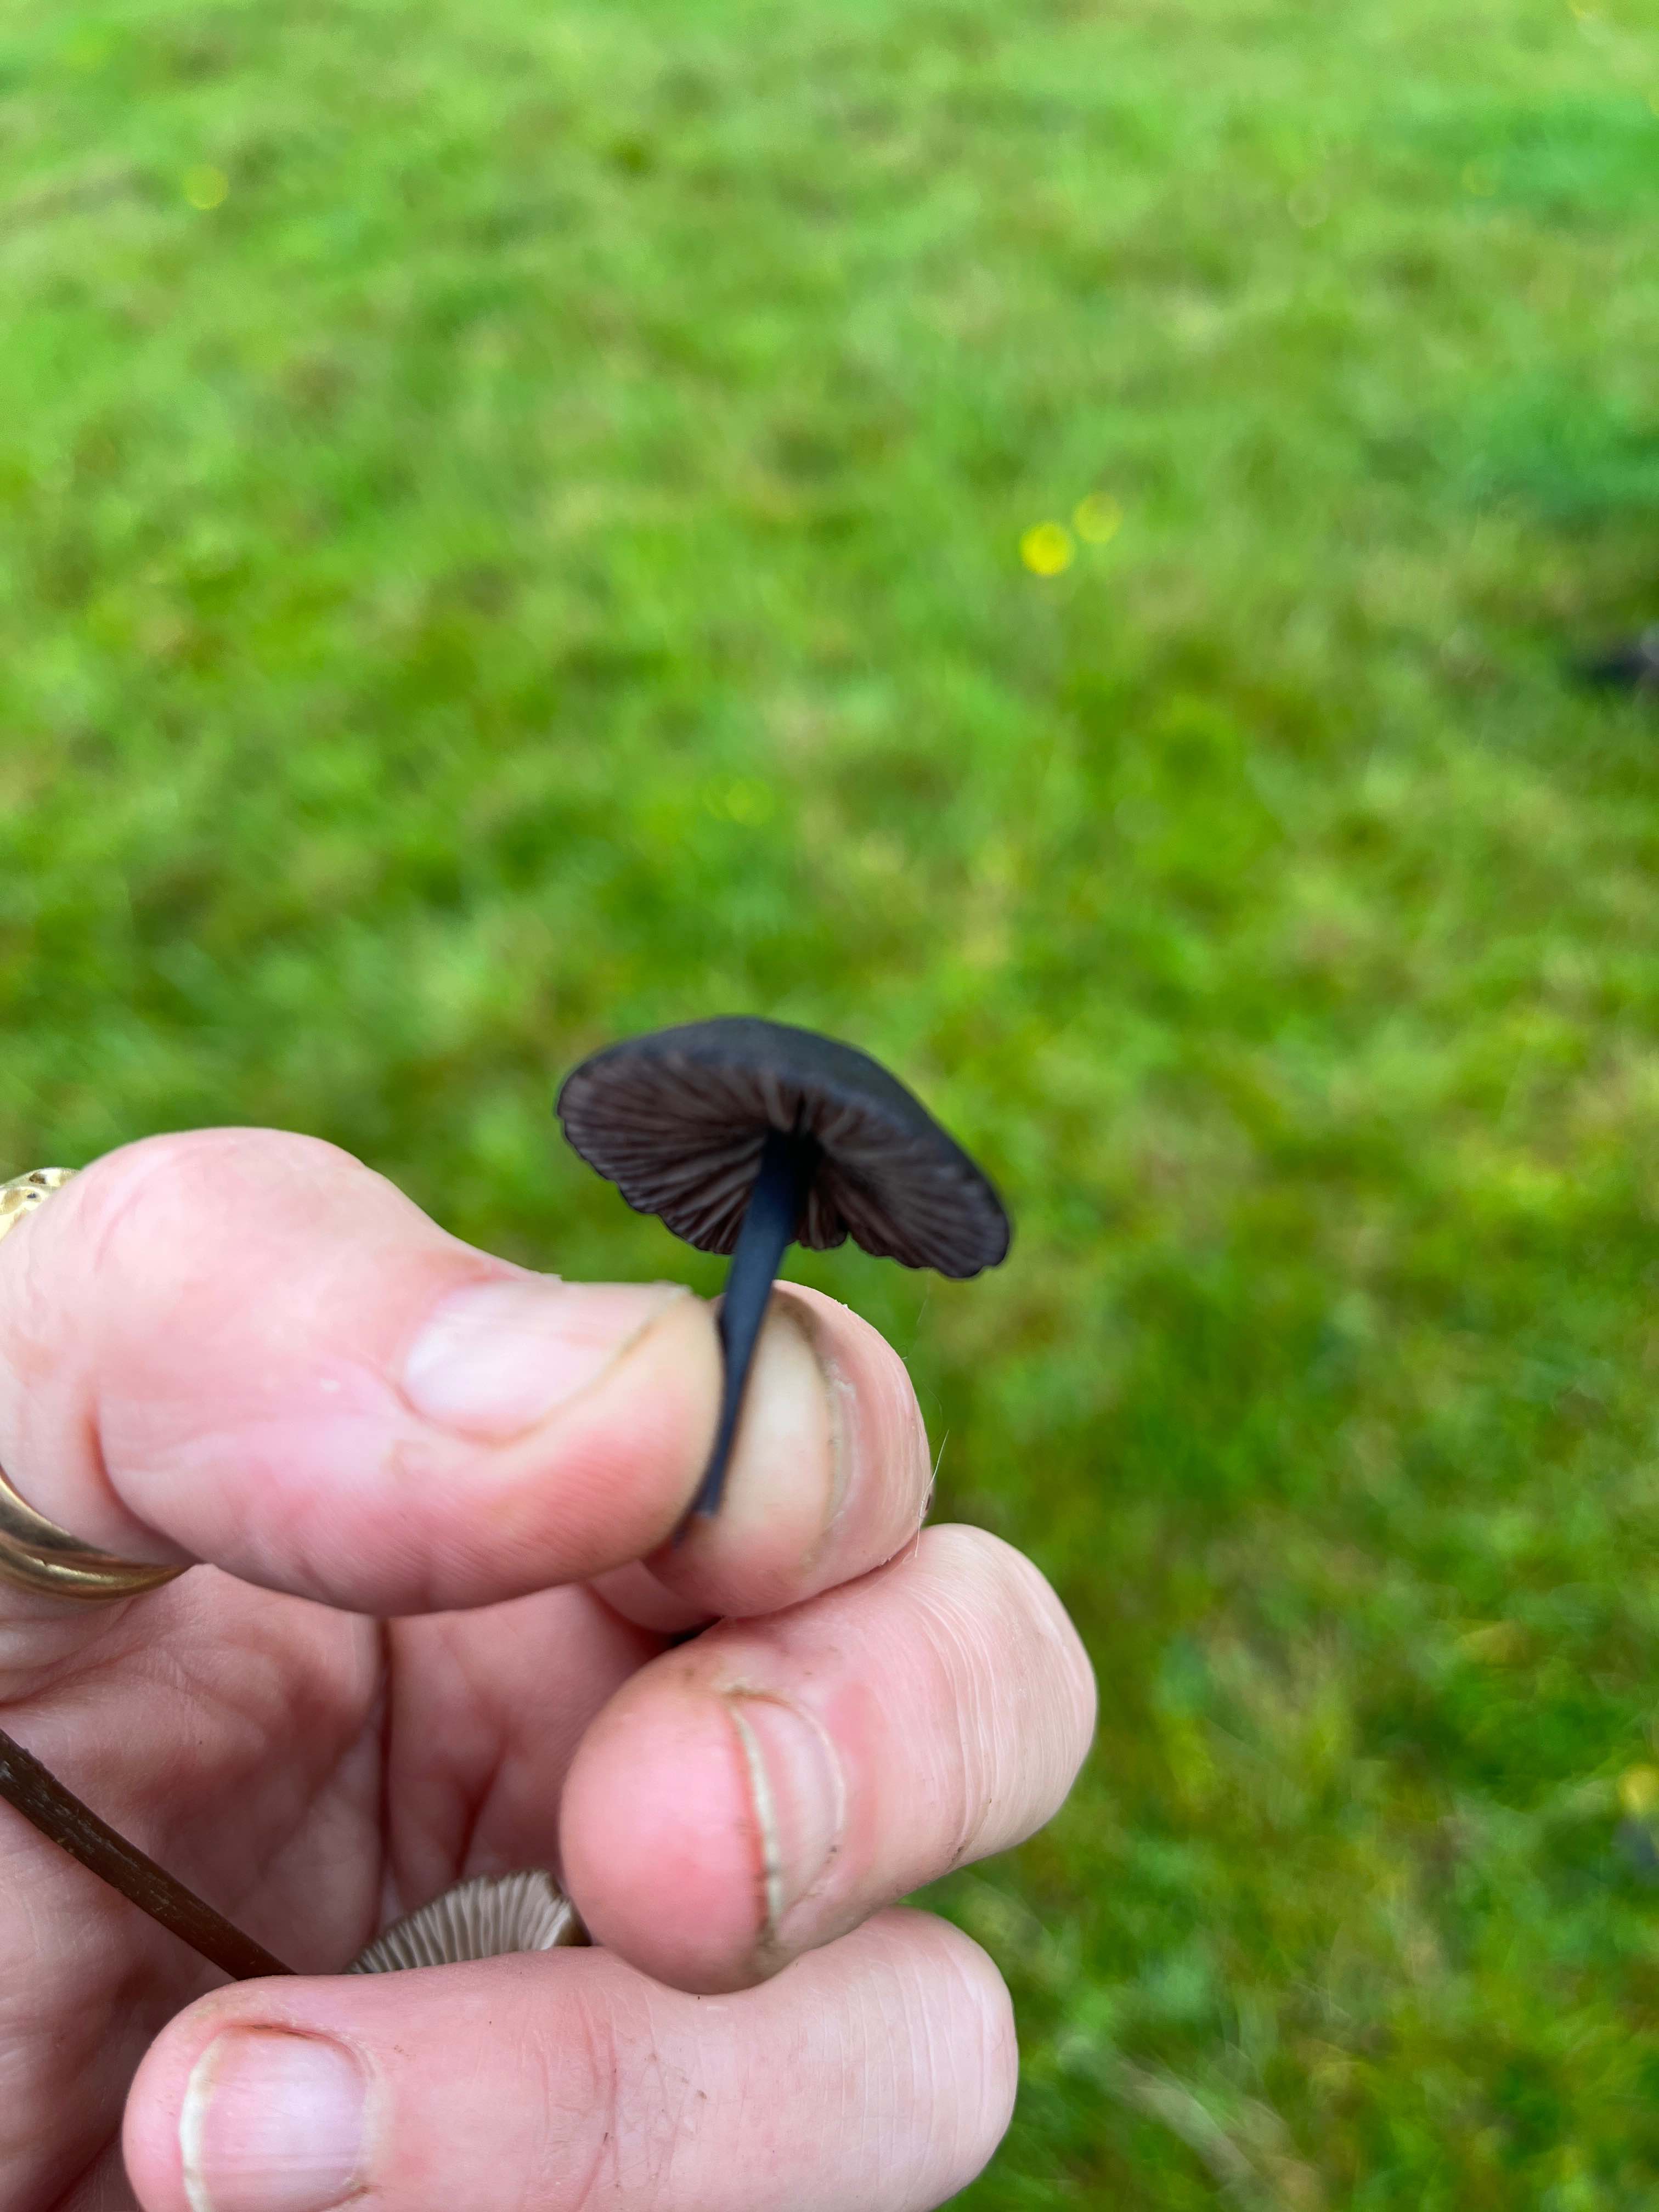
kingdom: Fungi
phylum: Basidiomycota
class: Agaricomycetes
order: Agaricales
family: Entolomataceae
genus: Entoloma
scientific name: Entoloma
